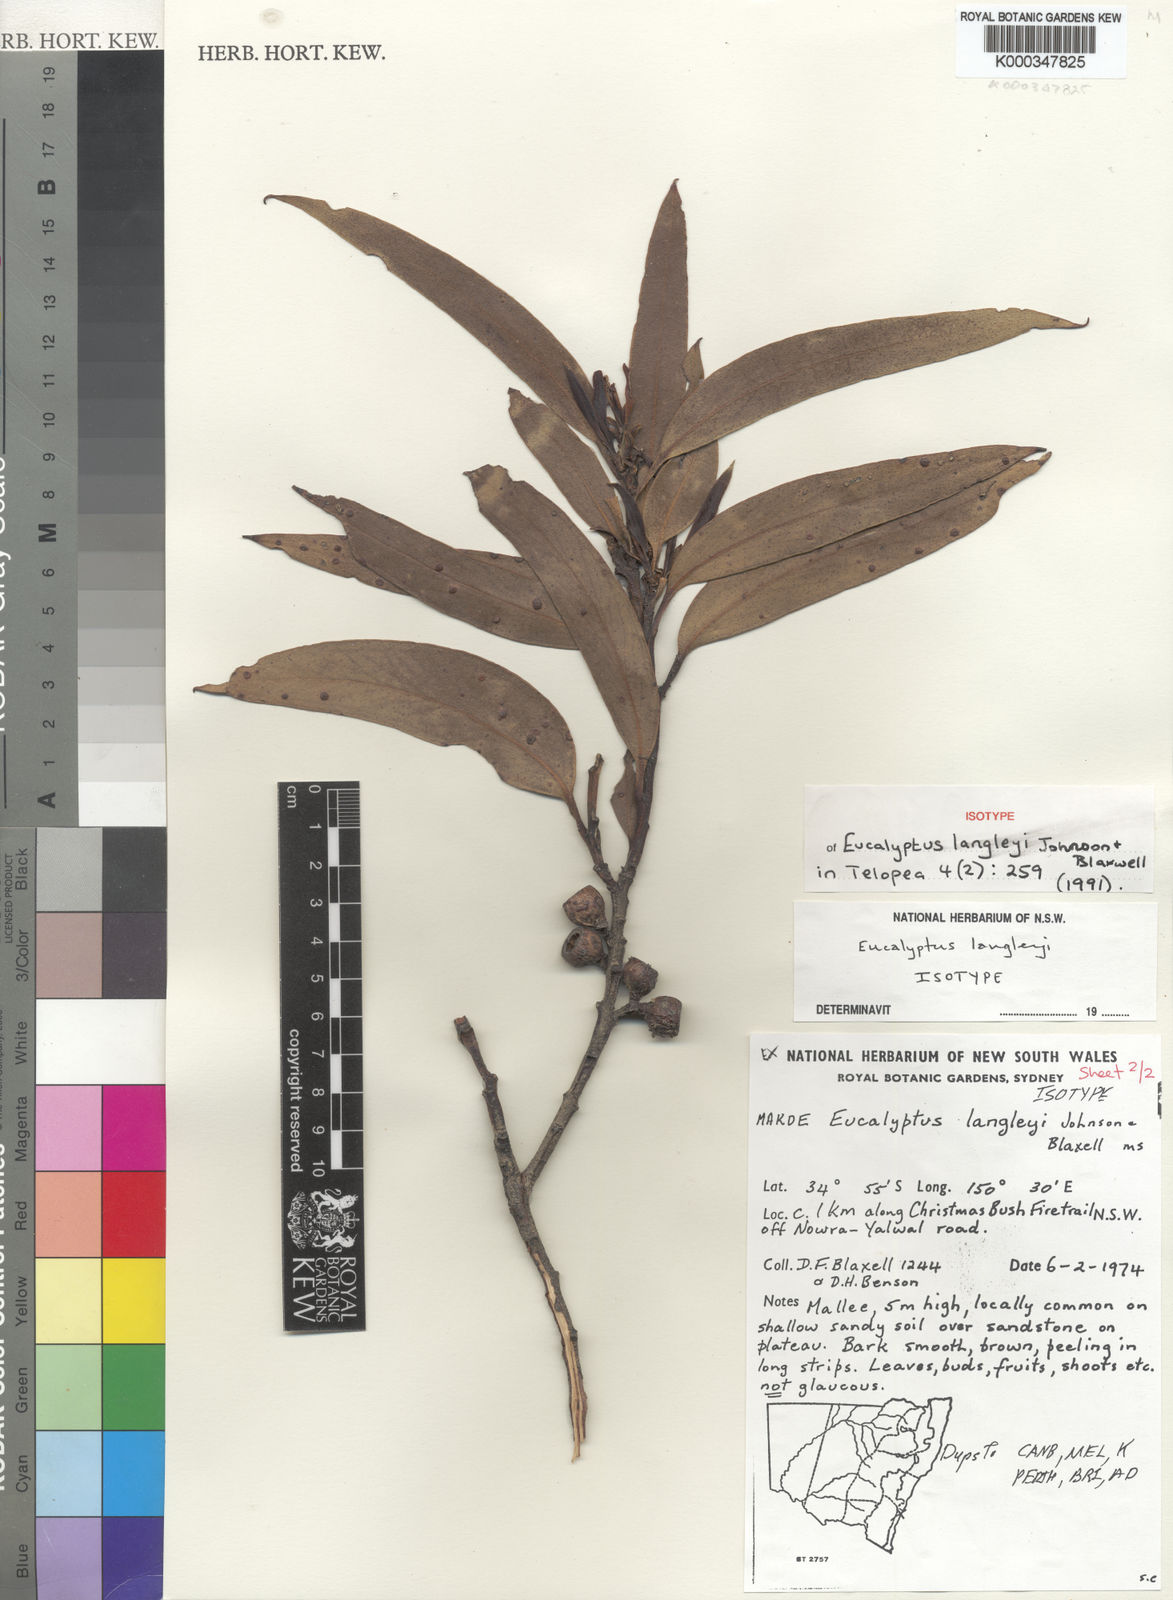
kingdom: Plantae
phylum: Tracheophyta
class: Magnoliopsida
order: Myrtales
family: Myrtaceae
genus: Eucalyptus
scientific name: Eucalyptus langleyi
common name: Albatross mallee
